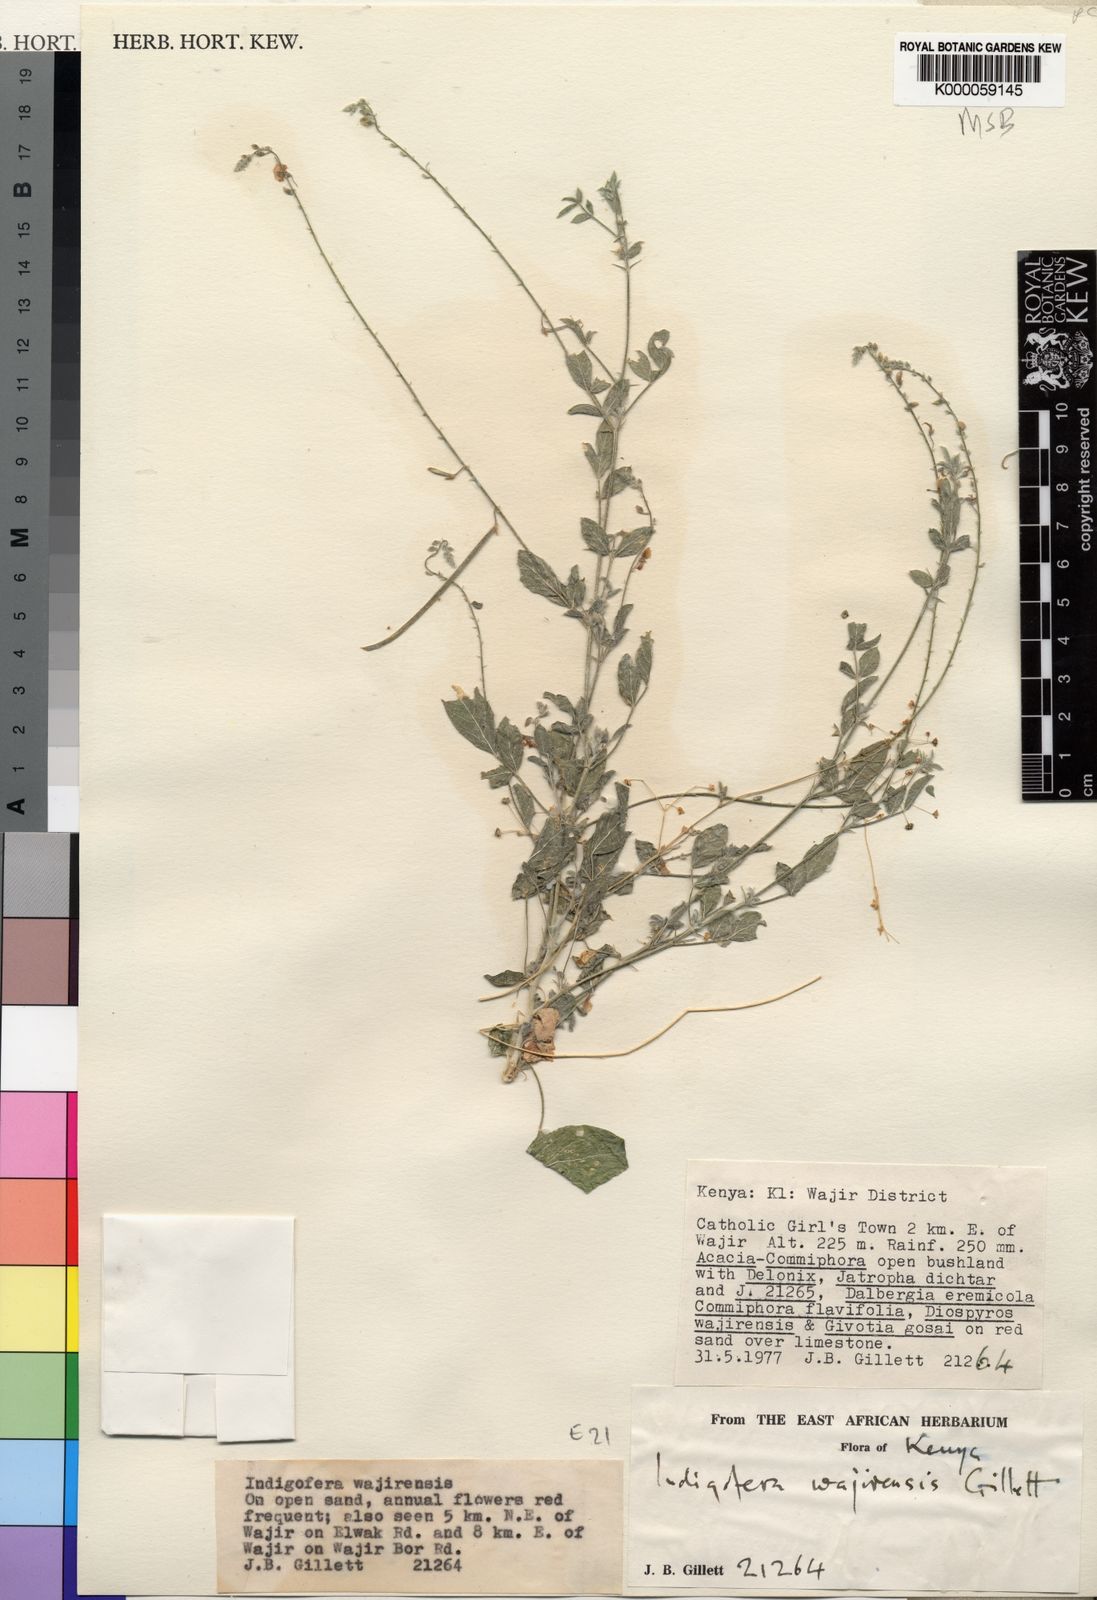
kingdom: Plantae
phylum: Tracheophyta
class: Magnoliopsida
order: Fabales
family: Fabaceae
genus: Microcharis
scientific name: Microcharis wajirensis
